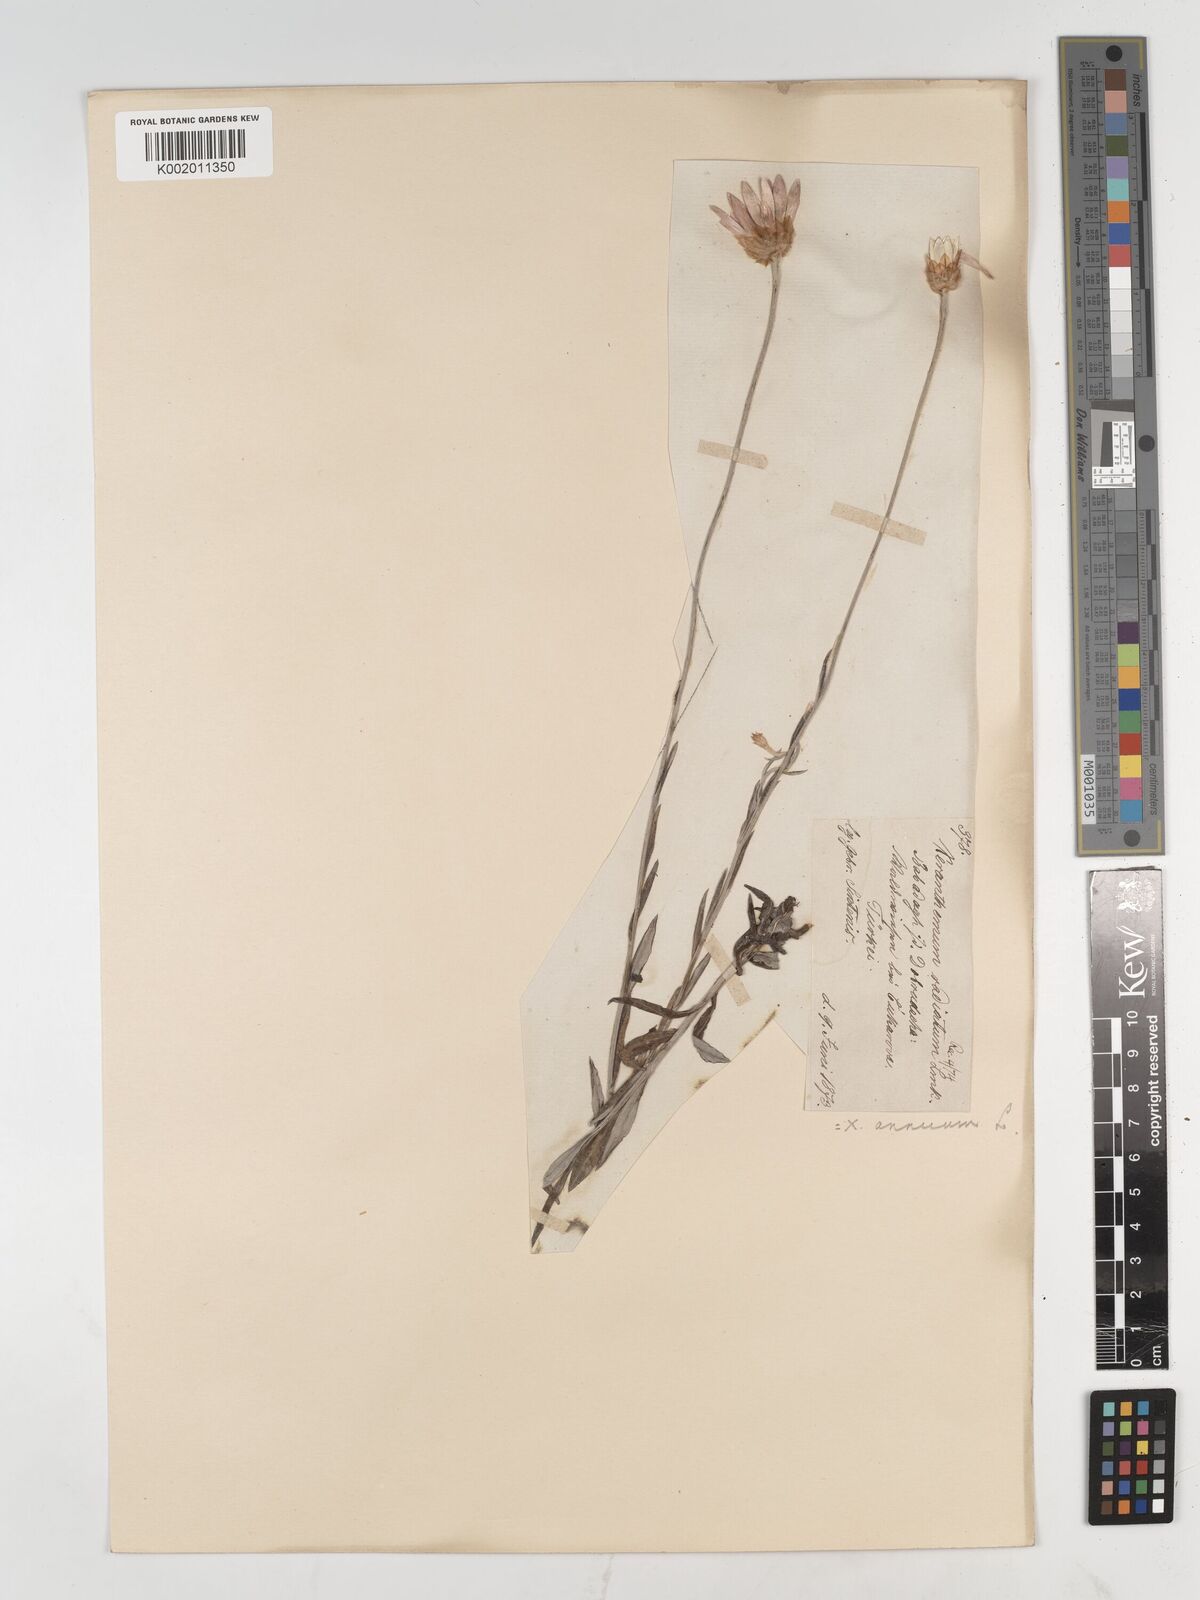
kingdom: Plantae
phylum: Tracheophyta
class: Magnoliopsida
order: Asterales
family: Asteraceae
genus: Xeranthemum
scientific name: Xeranthemum annuum
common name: Immortelle
